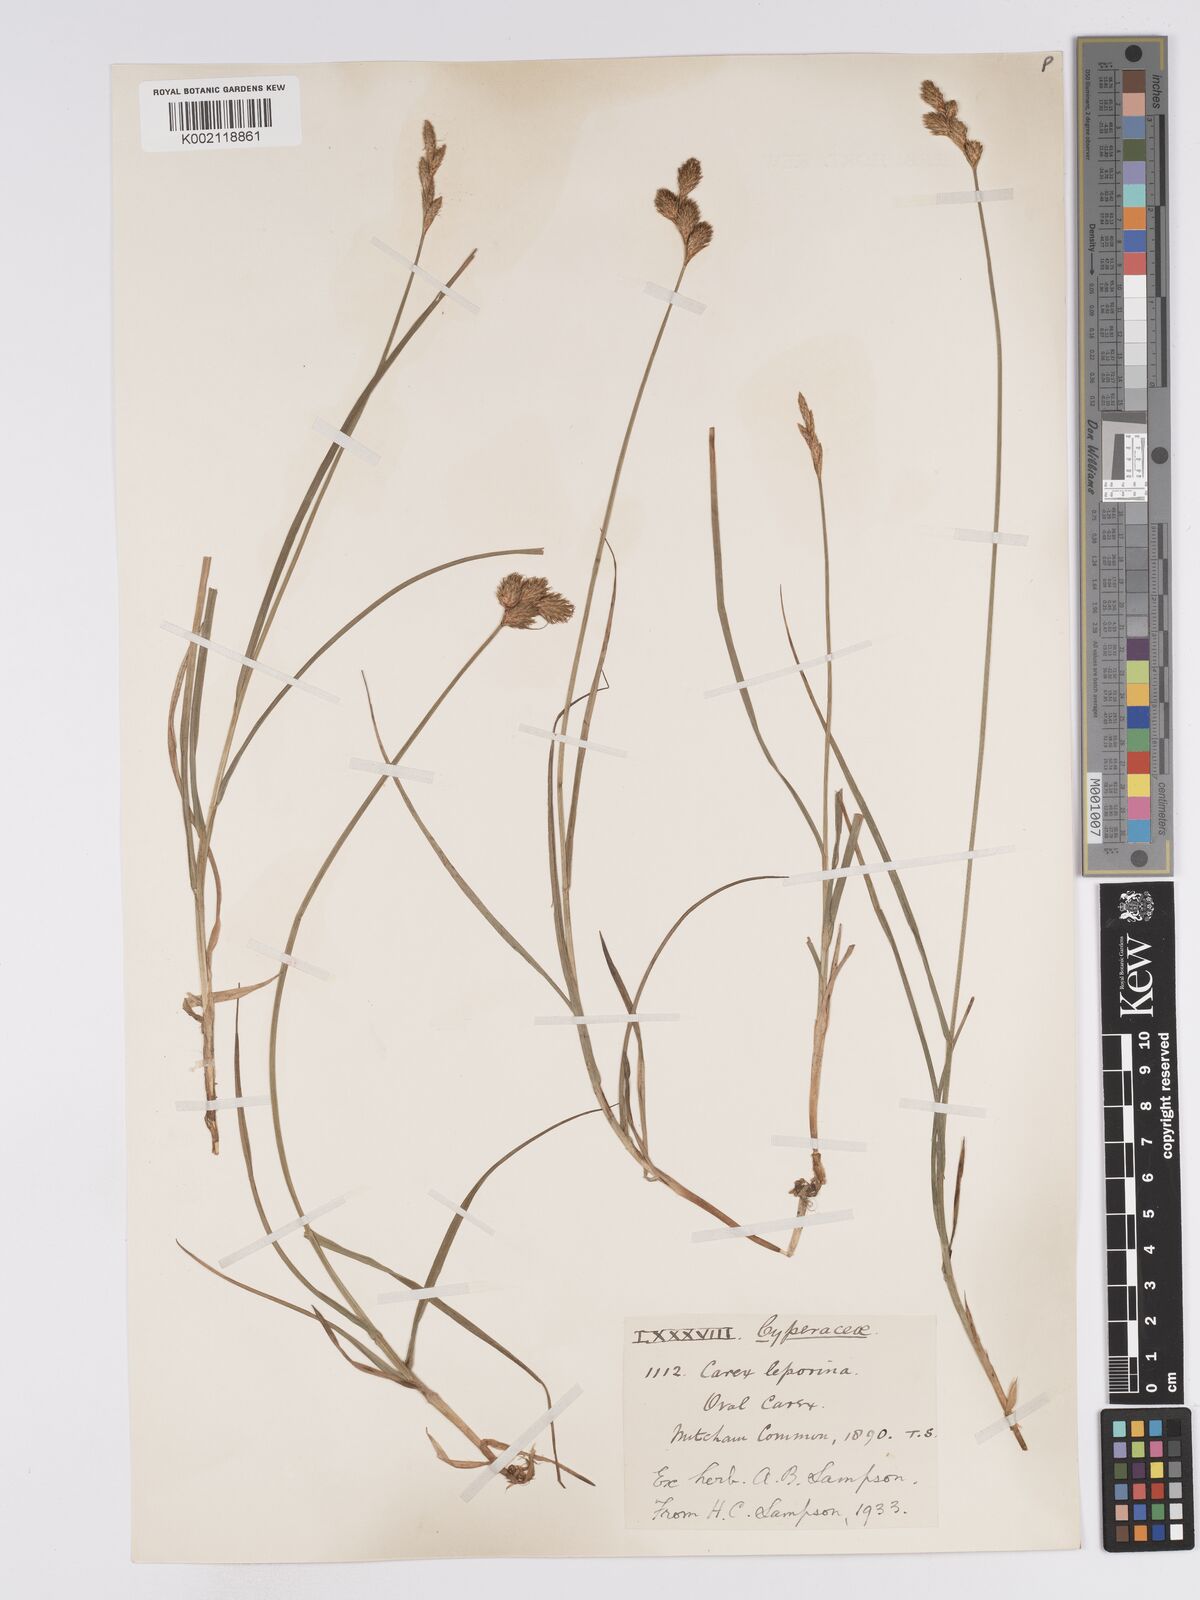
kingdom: Plantae
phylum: Tracheophyta
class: Liliopsida
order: Poales
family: Cyperaceae
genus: Carex
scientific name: Carex leporina
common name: Oval sedge
